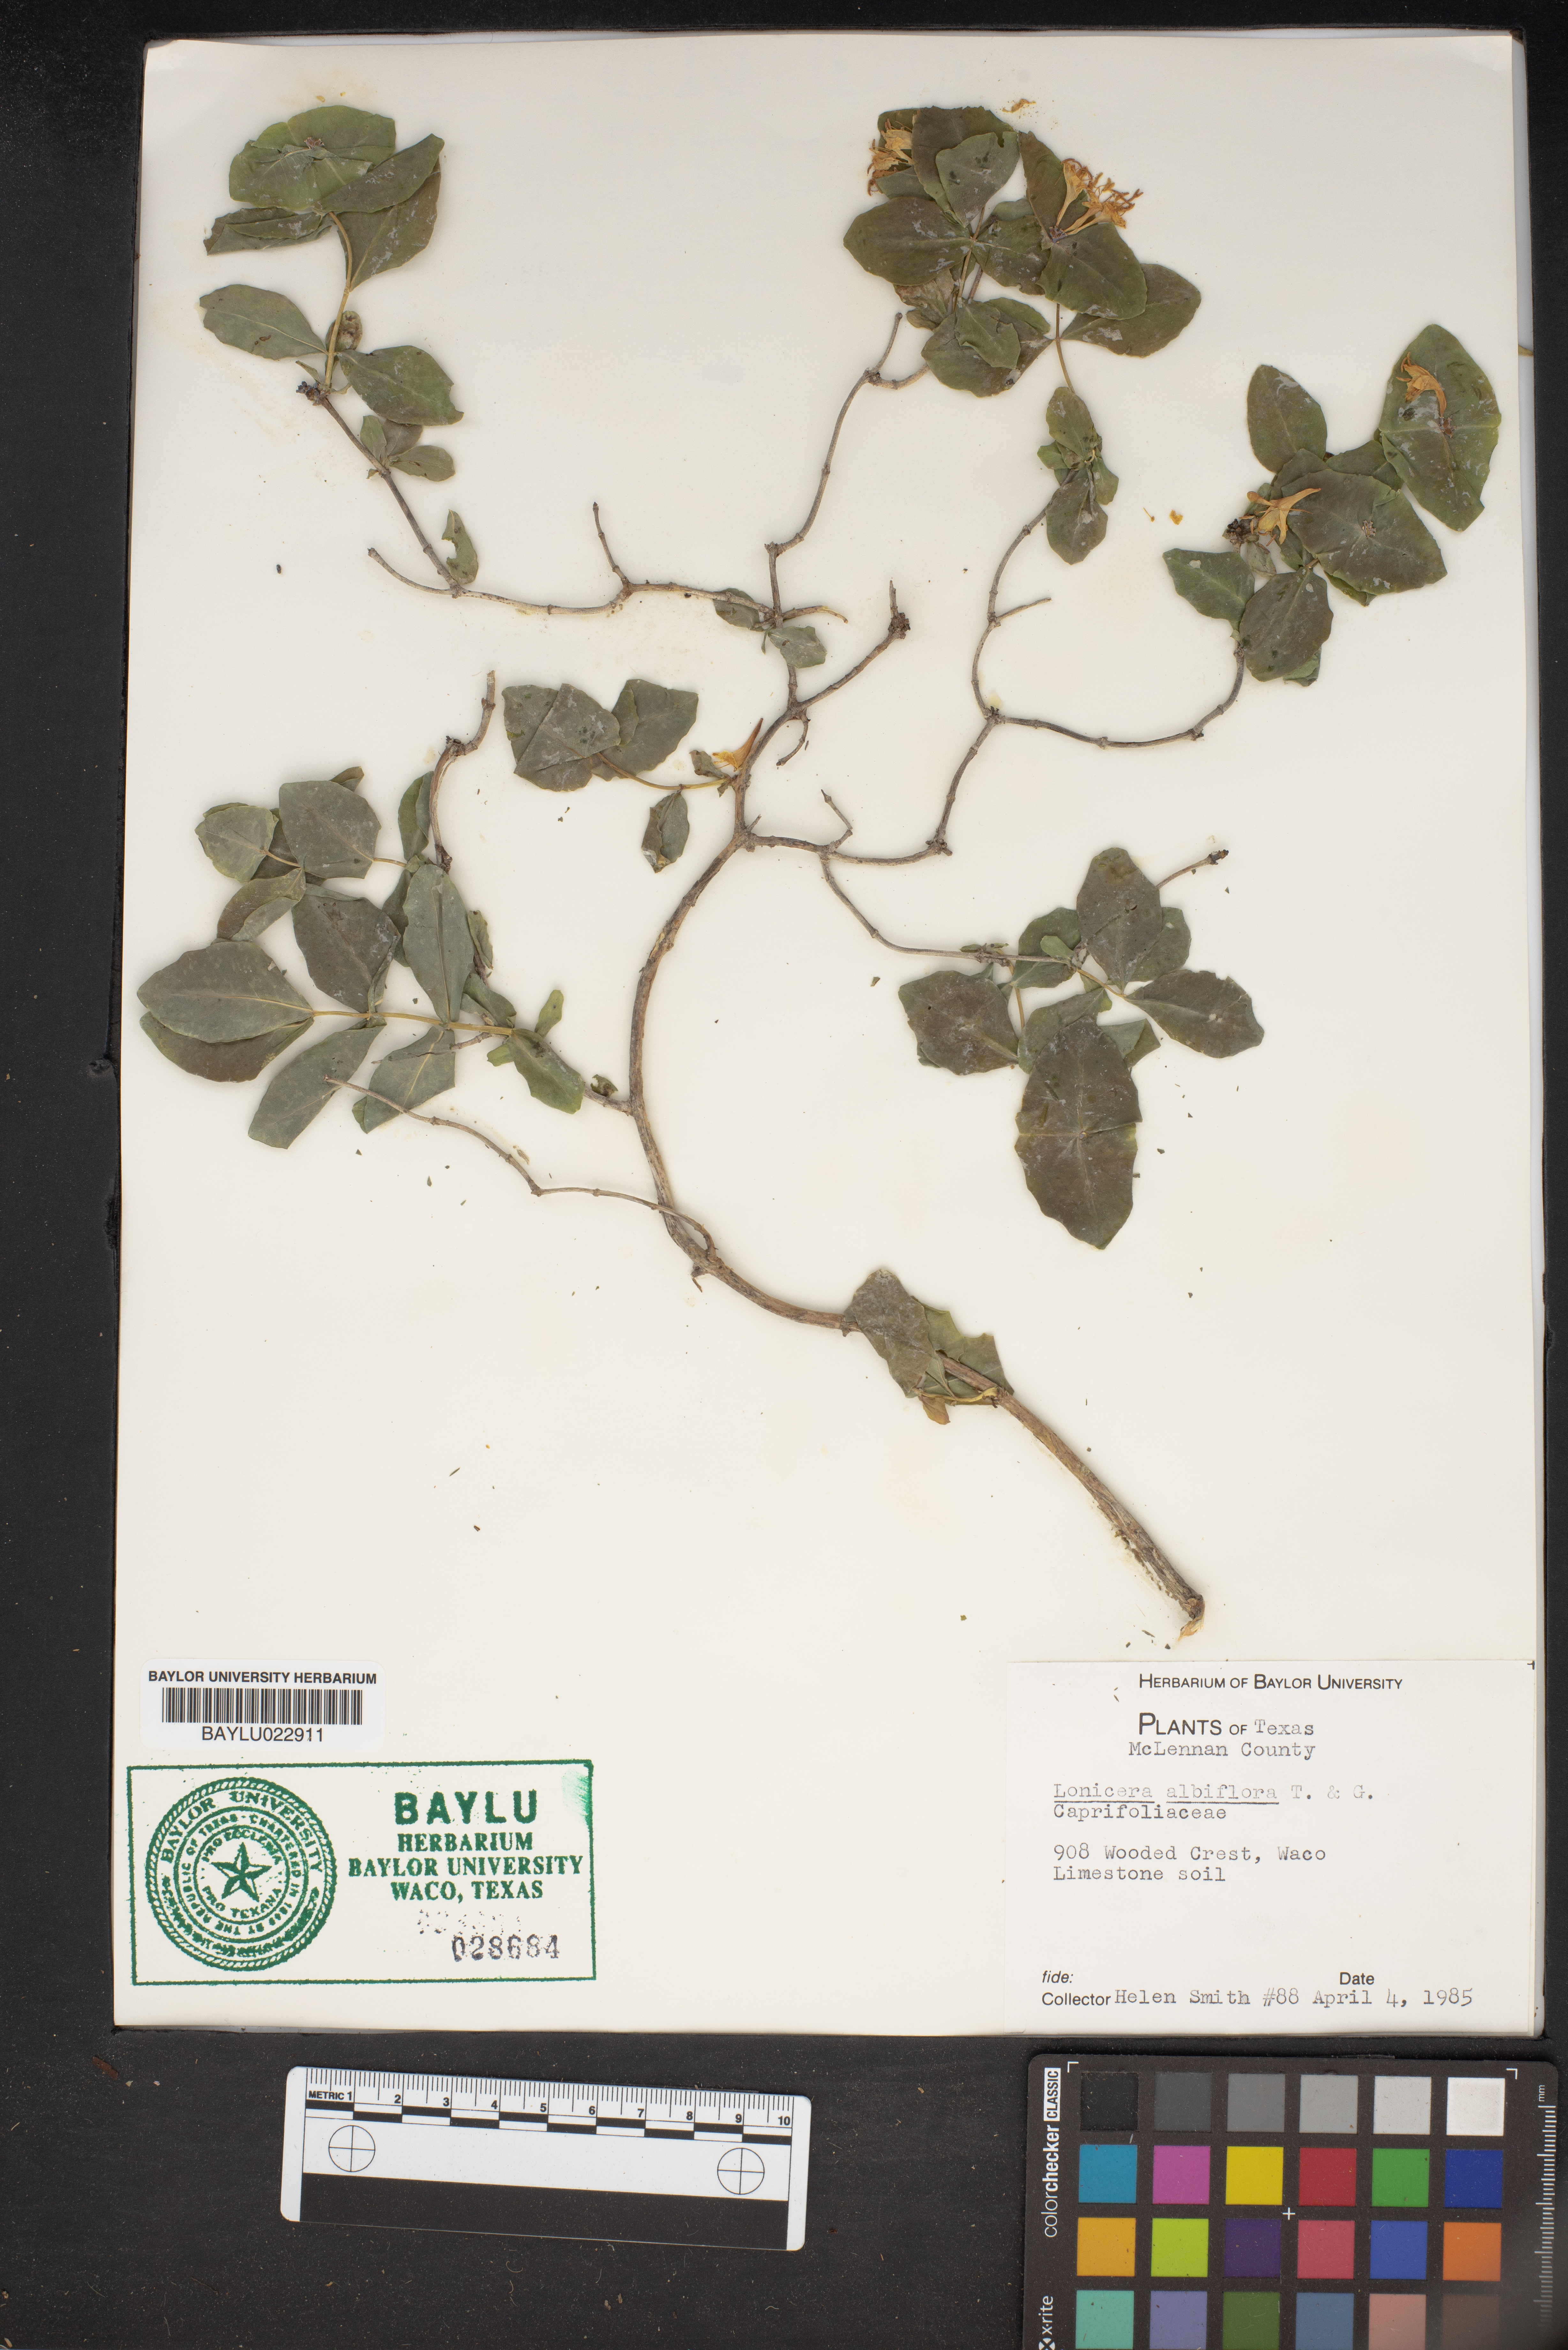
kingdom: Plantae
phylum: Tracheophyta
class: Magnoliopsida
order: Dipsacales
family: Caprifoliaceae
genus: Lonicera
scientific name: Lonicera albiflora
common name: White honeysuckle
